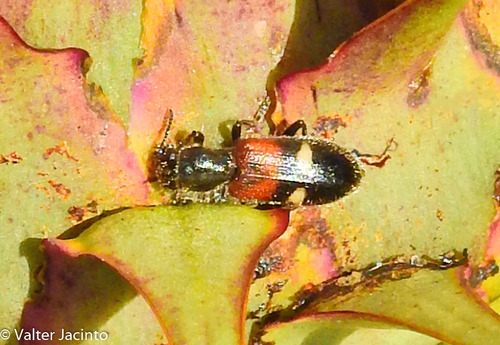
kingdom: Animalia
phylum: Arthropoda
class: Insecta
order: Coleoptera
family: Cleridae
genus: Tilloidea
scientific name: Tilloidea transversalis
